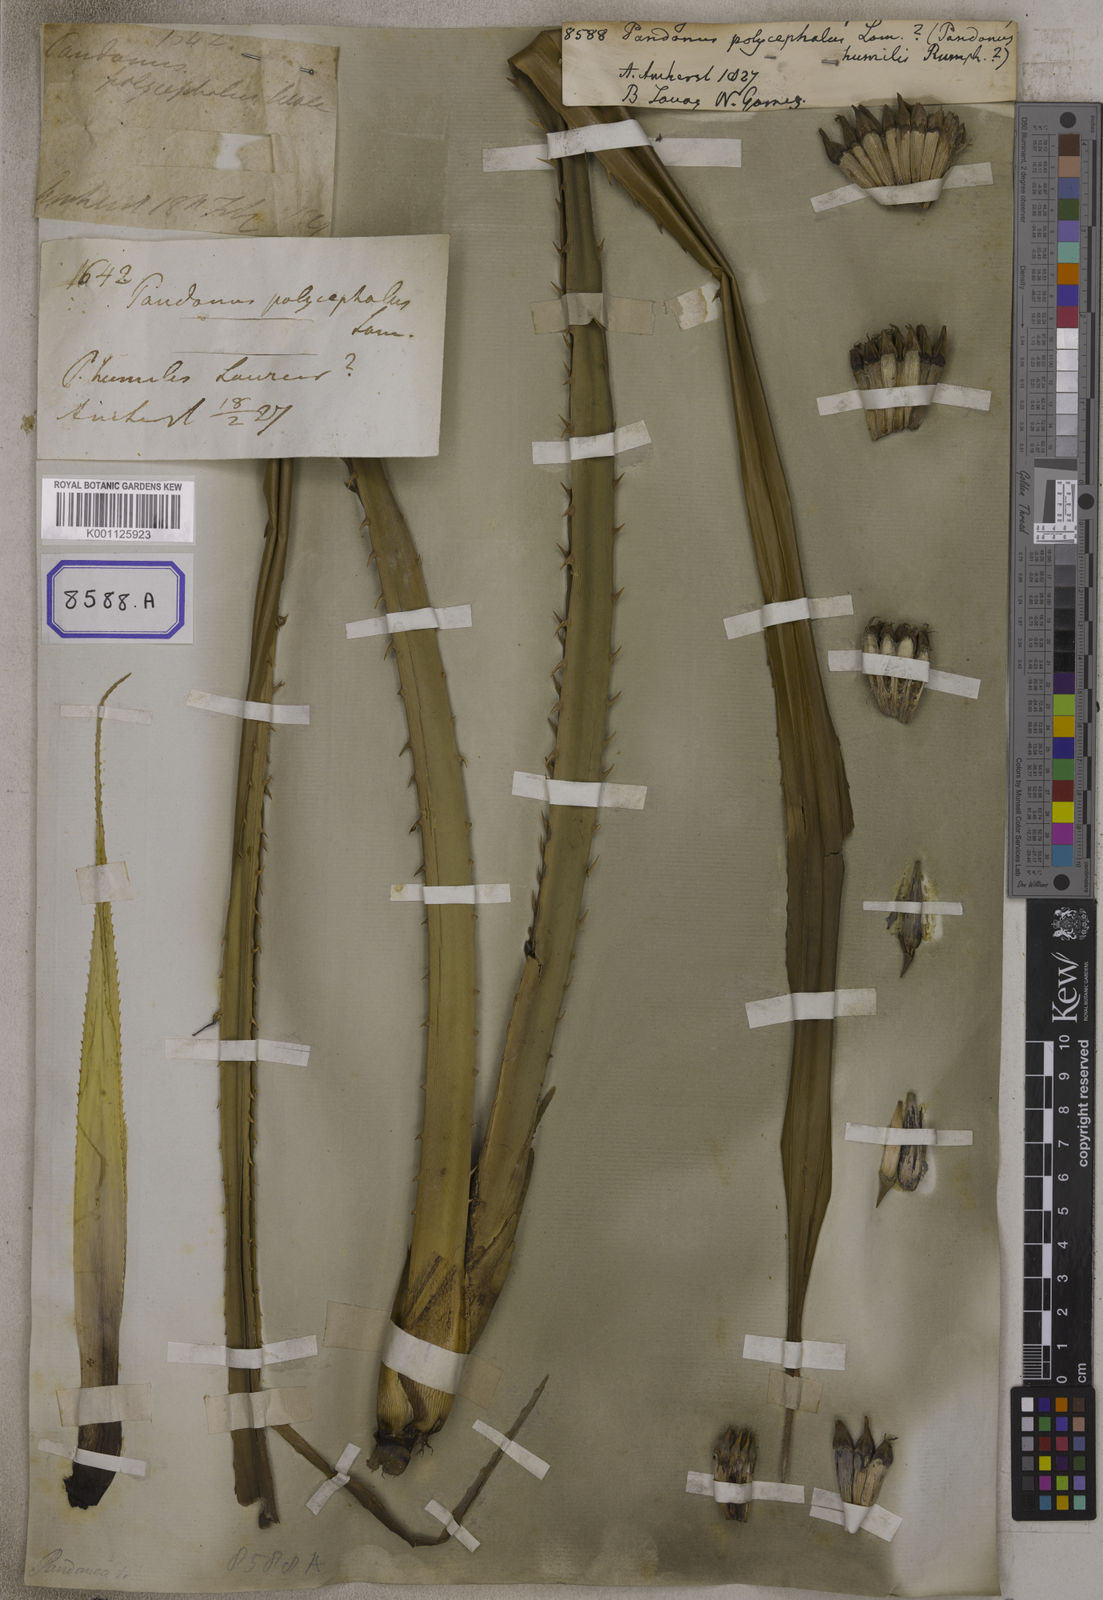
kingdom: Plantae
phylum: Tracheophyta
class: Liliopsida
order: Pandanales
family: Pandanaceae
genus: Pandanus
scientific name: Pandanus polycephalus
